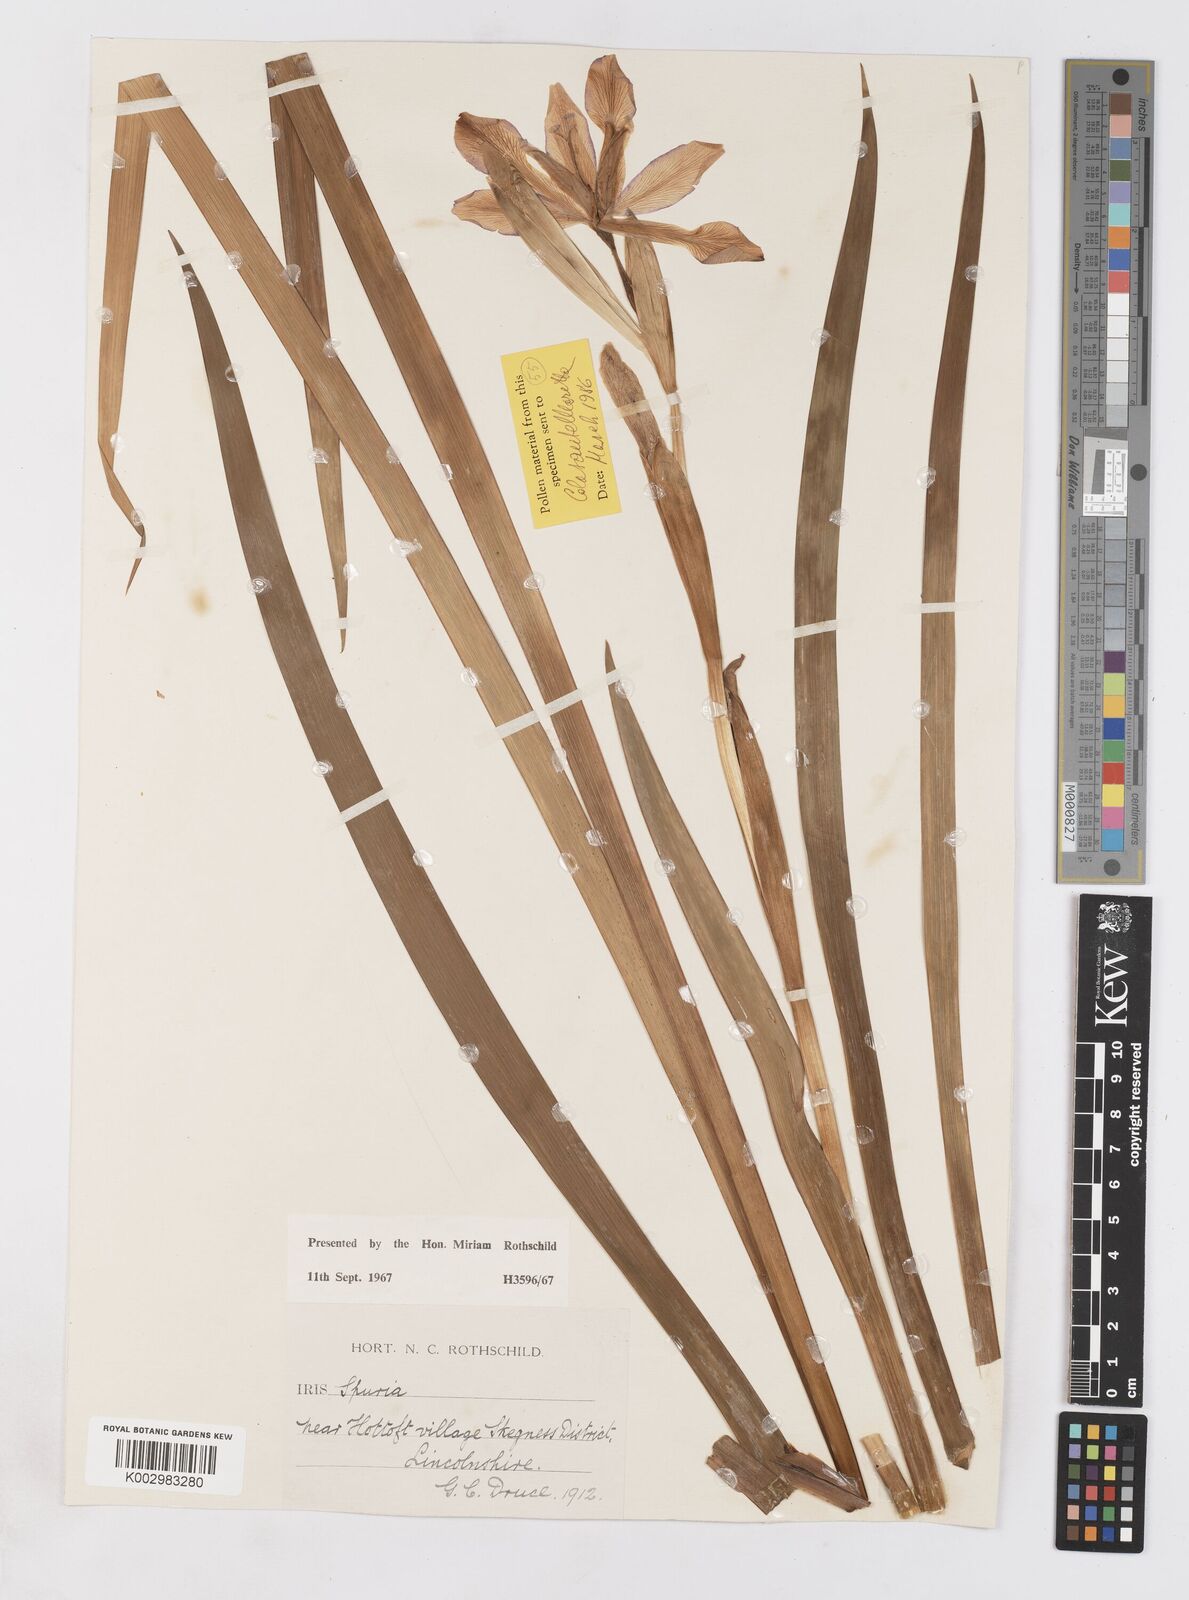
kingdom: Plantae
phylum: Tracheophyta
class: Liliopsida
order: Asparagales
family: Iridaceae
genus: Iris
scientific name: Iris spuria
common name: Blue iris
